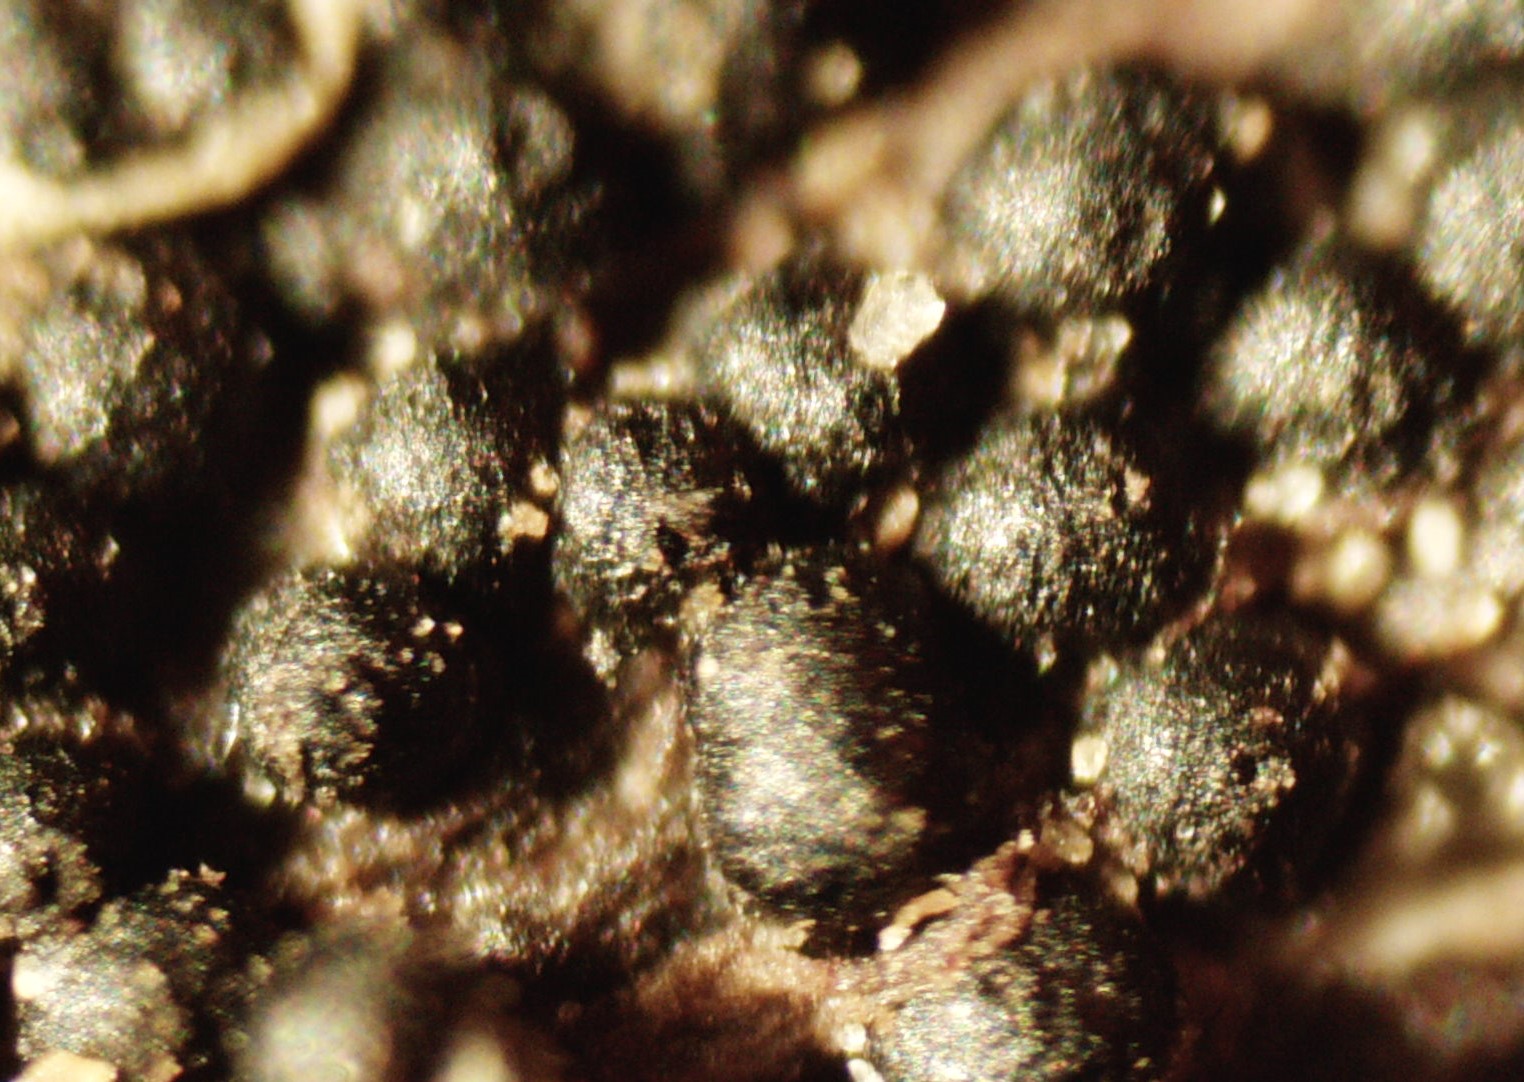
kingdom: Fungi
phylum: Ascomycota
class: Dothideomycetes
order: Pleosporales
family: Leptosphaeriaceae
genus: Leptosphaeria
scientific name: Leptosphaeria
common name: kulkegle
